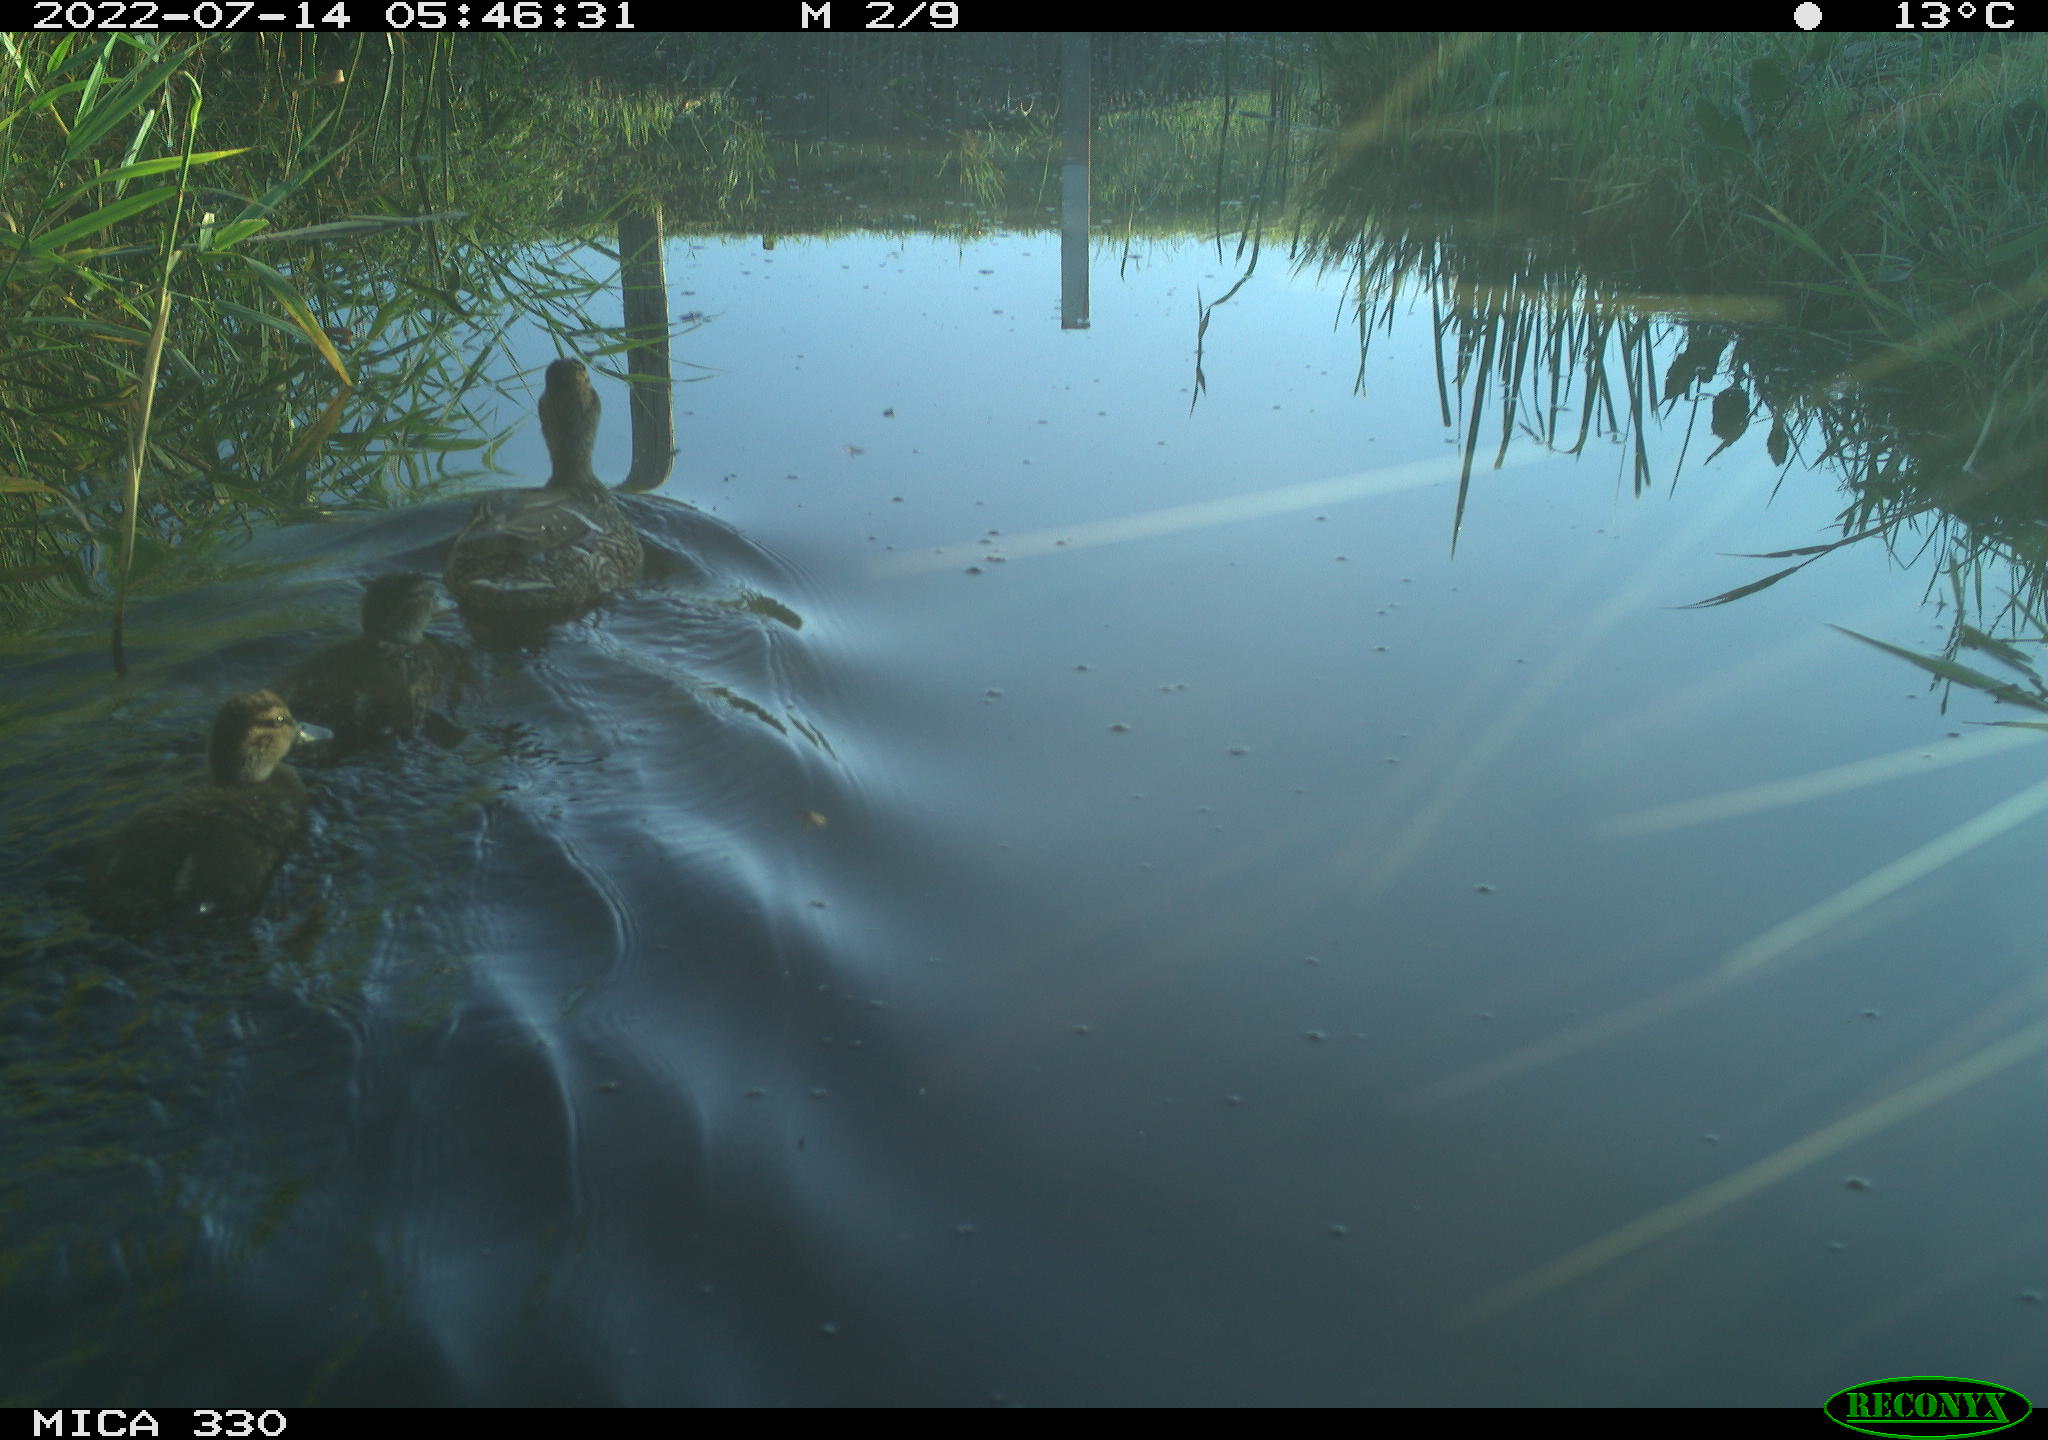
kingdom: Animalia
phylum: Chordata
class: Aves
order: Anseriformes
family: Anatidae
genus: Anas
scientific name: Anas platyrhynchos
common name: Mallard
